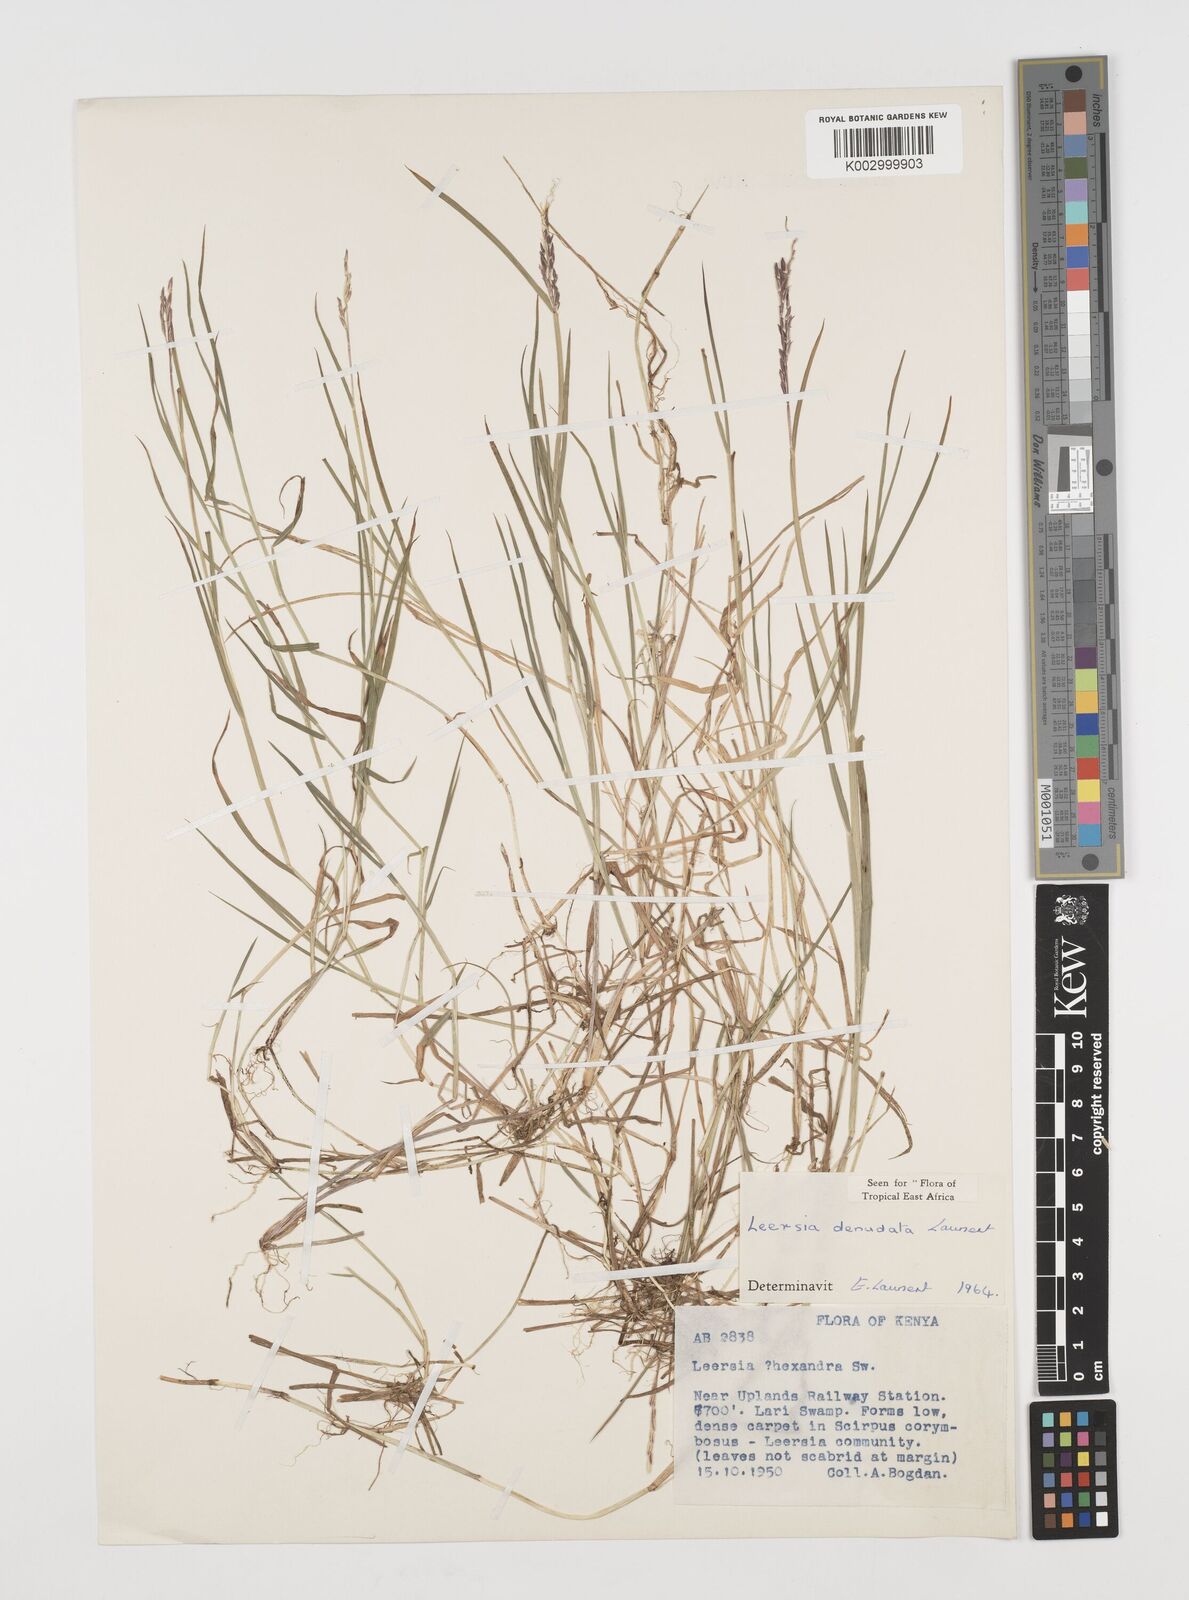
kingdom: Plantae
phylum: Tracheophyta
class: Liliopsida
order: Poales
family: Poaceae
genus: Leersia
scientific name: Leersia denudata
